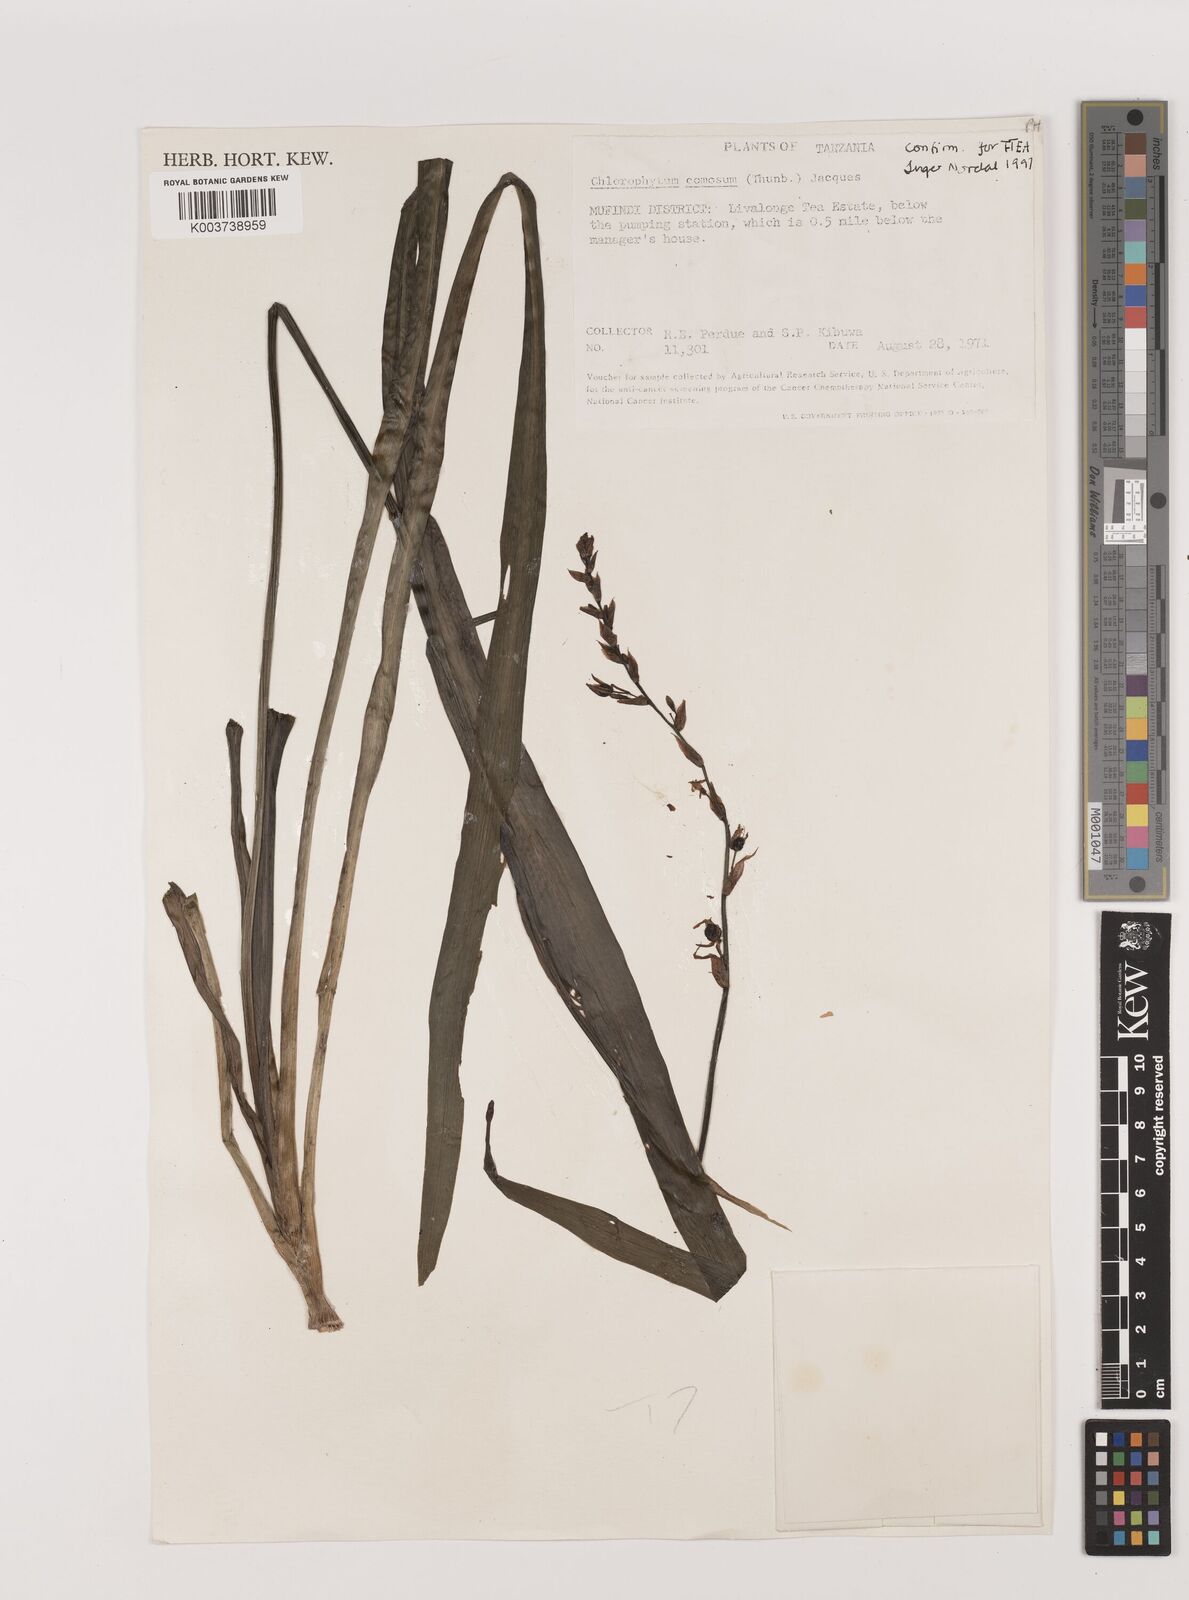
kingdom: Plantae
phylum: Tracheophyta
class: Liliopsida
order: Asparagales
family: Asparagaceae
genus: Chlorophytum
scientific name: Chlorophytum comosum
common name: Spider plant
